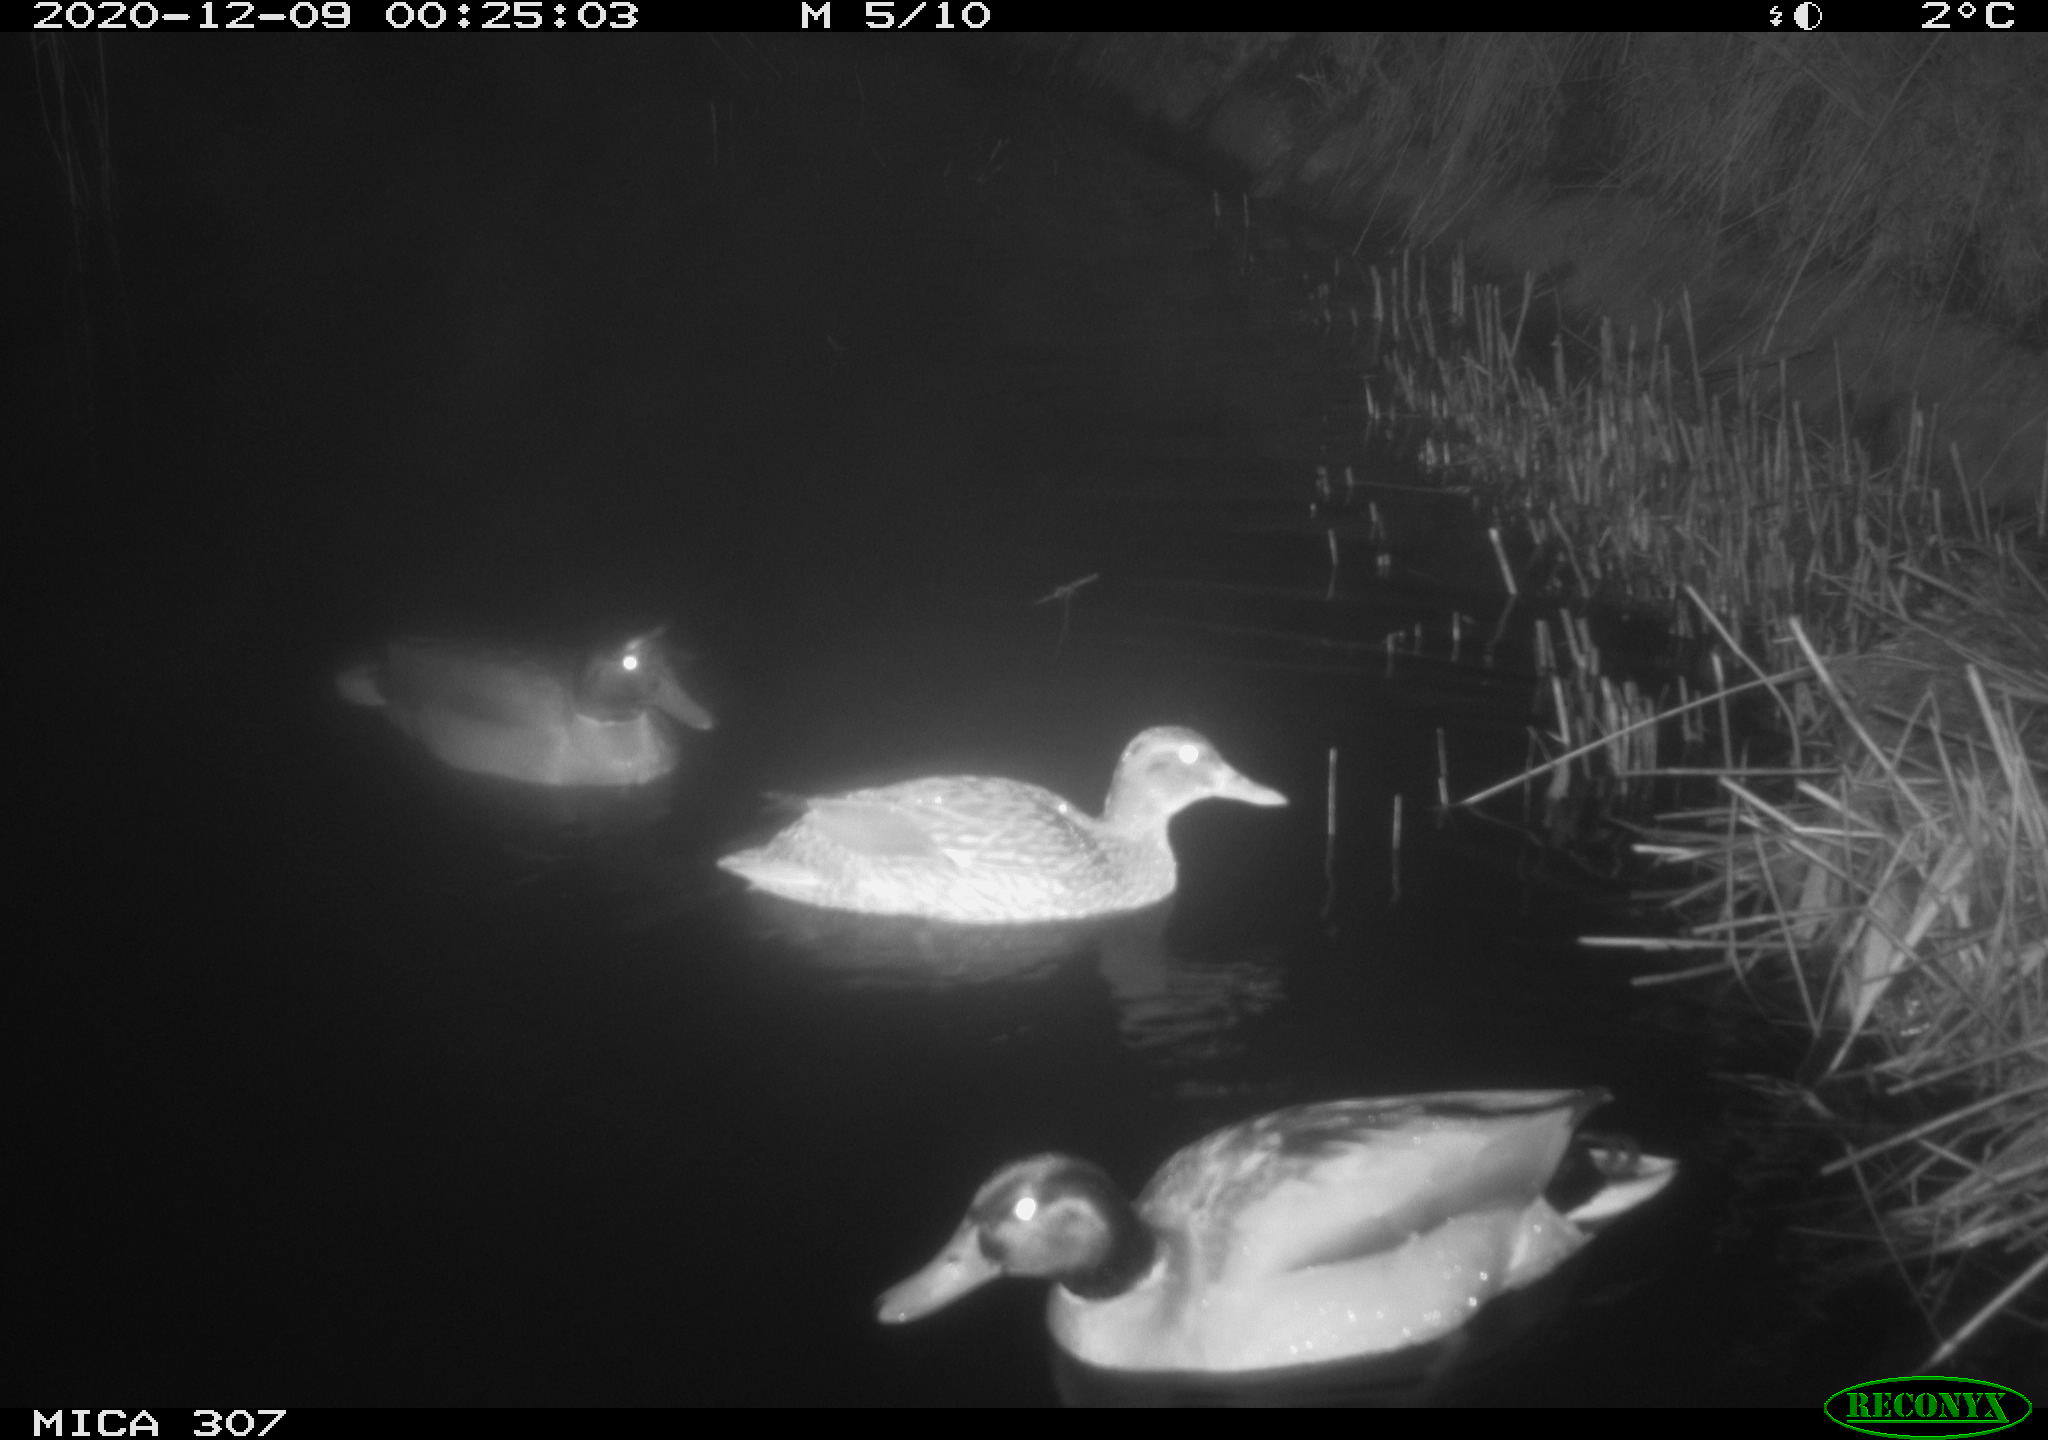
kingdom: Animalia
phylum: Chordata
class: Aves
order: Anseriformes
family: Anatidae
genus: Anas
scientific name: Anas platyrhynchos
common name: Mallard
